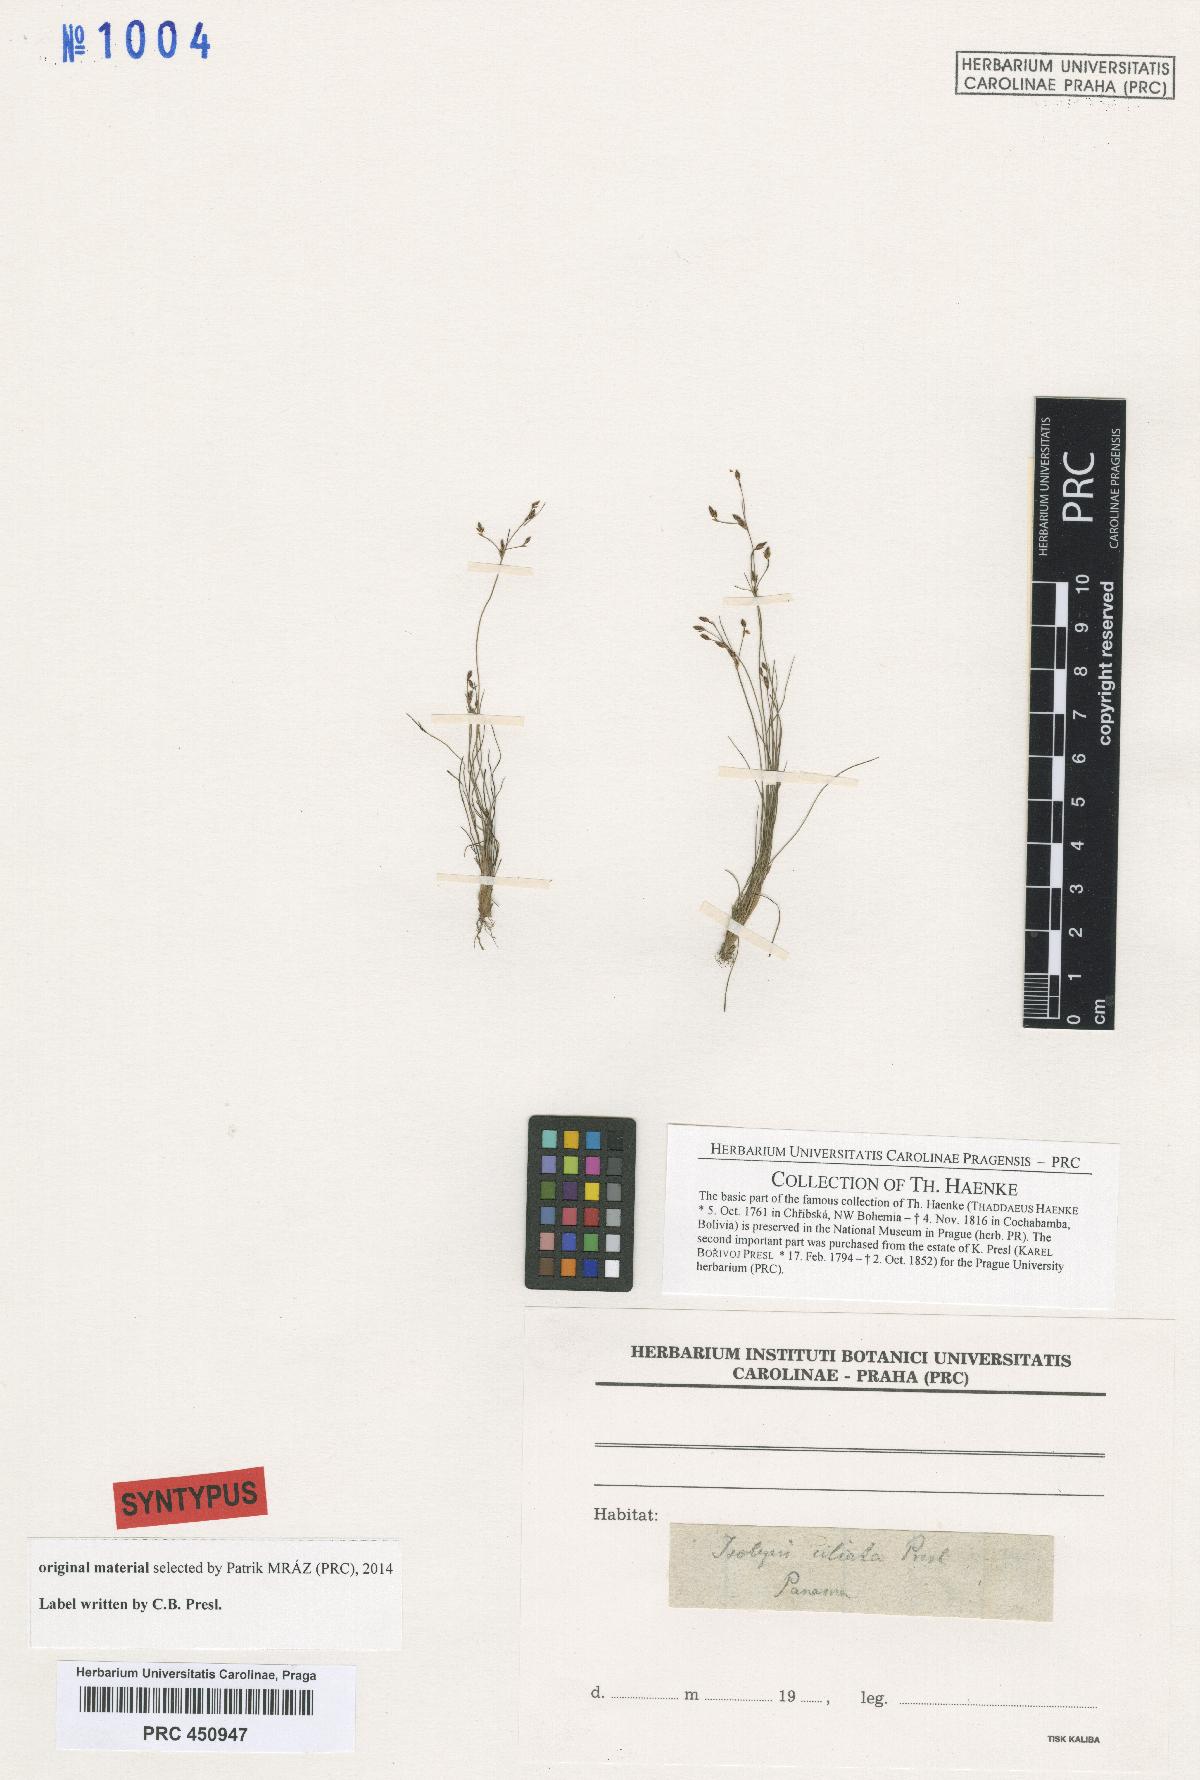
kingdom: Plantae
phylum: Tracheophyta
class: Liliopsida
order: Poales
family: Cyperaceae
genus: Bulbostylis
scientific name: Bulbostylis capillaris
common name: Densetuft hairsedge
